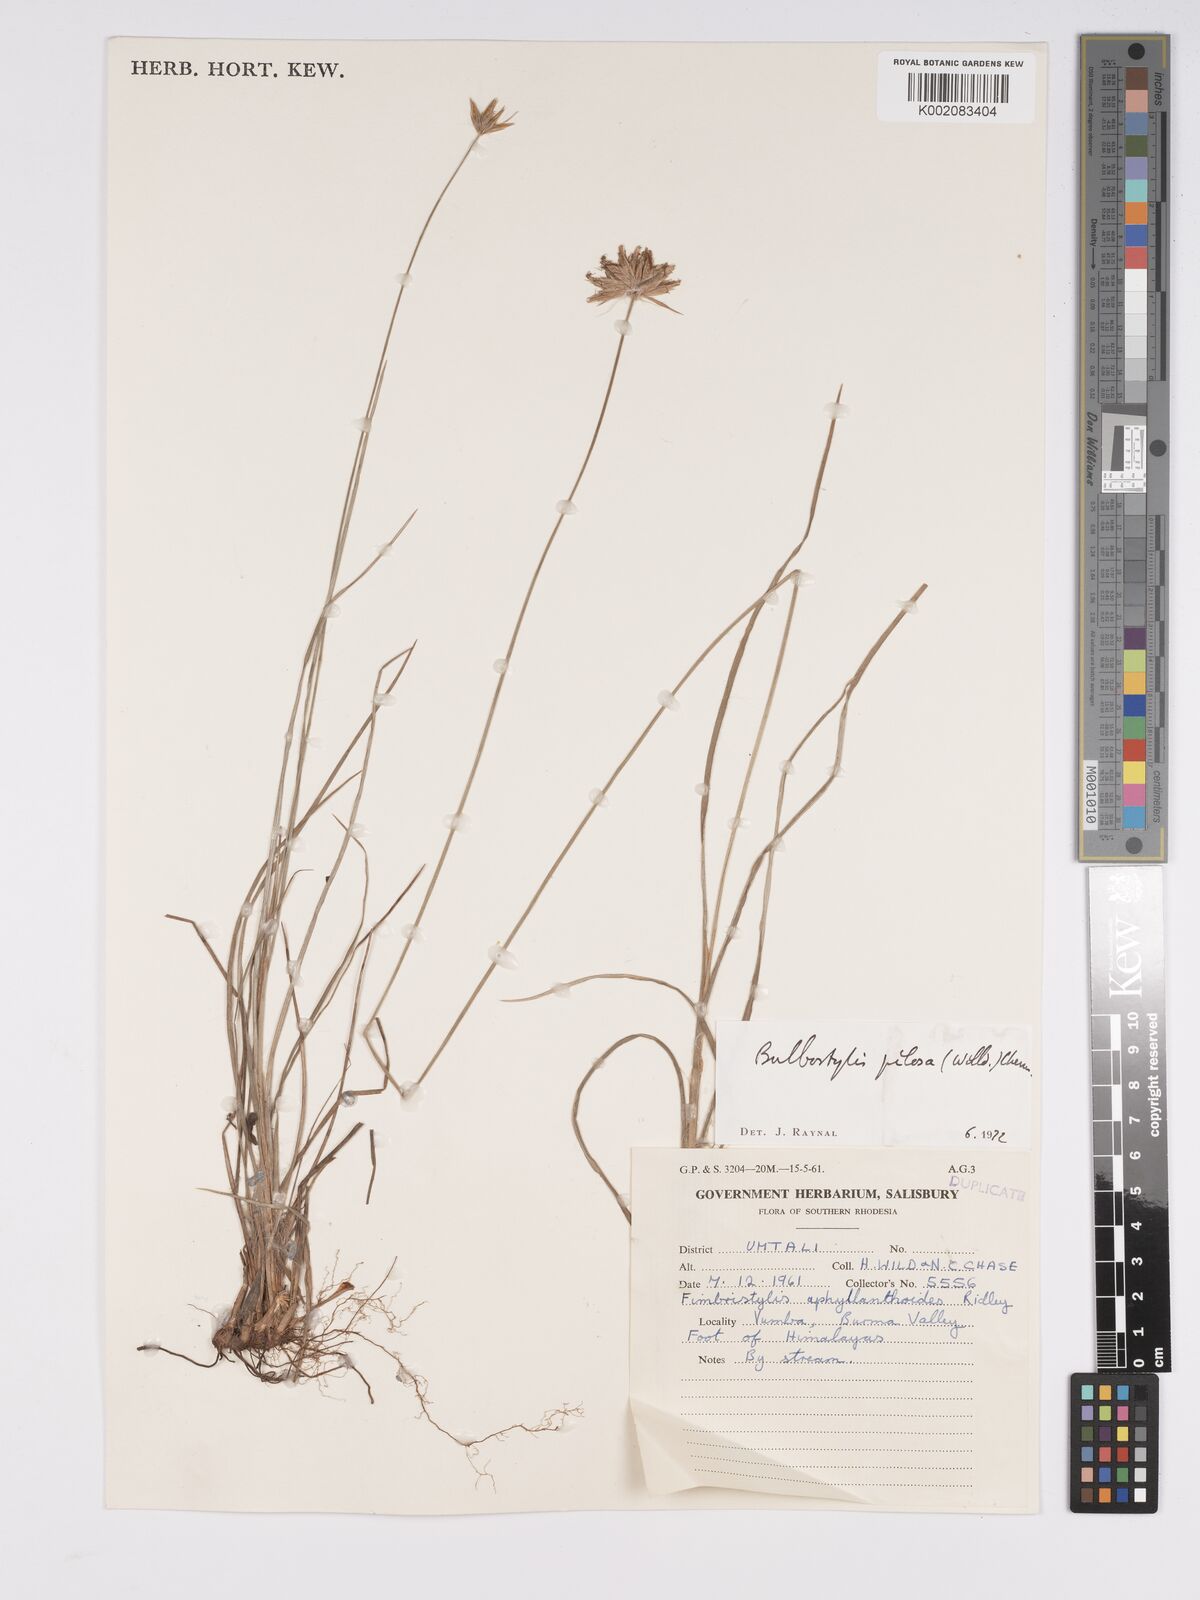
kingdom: Plantae
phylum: Tracheophyta
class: Liliopsida
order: Poales
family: Cyperaceae
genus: Bulbostylis
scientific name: Bulbostylis pilosa
